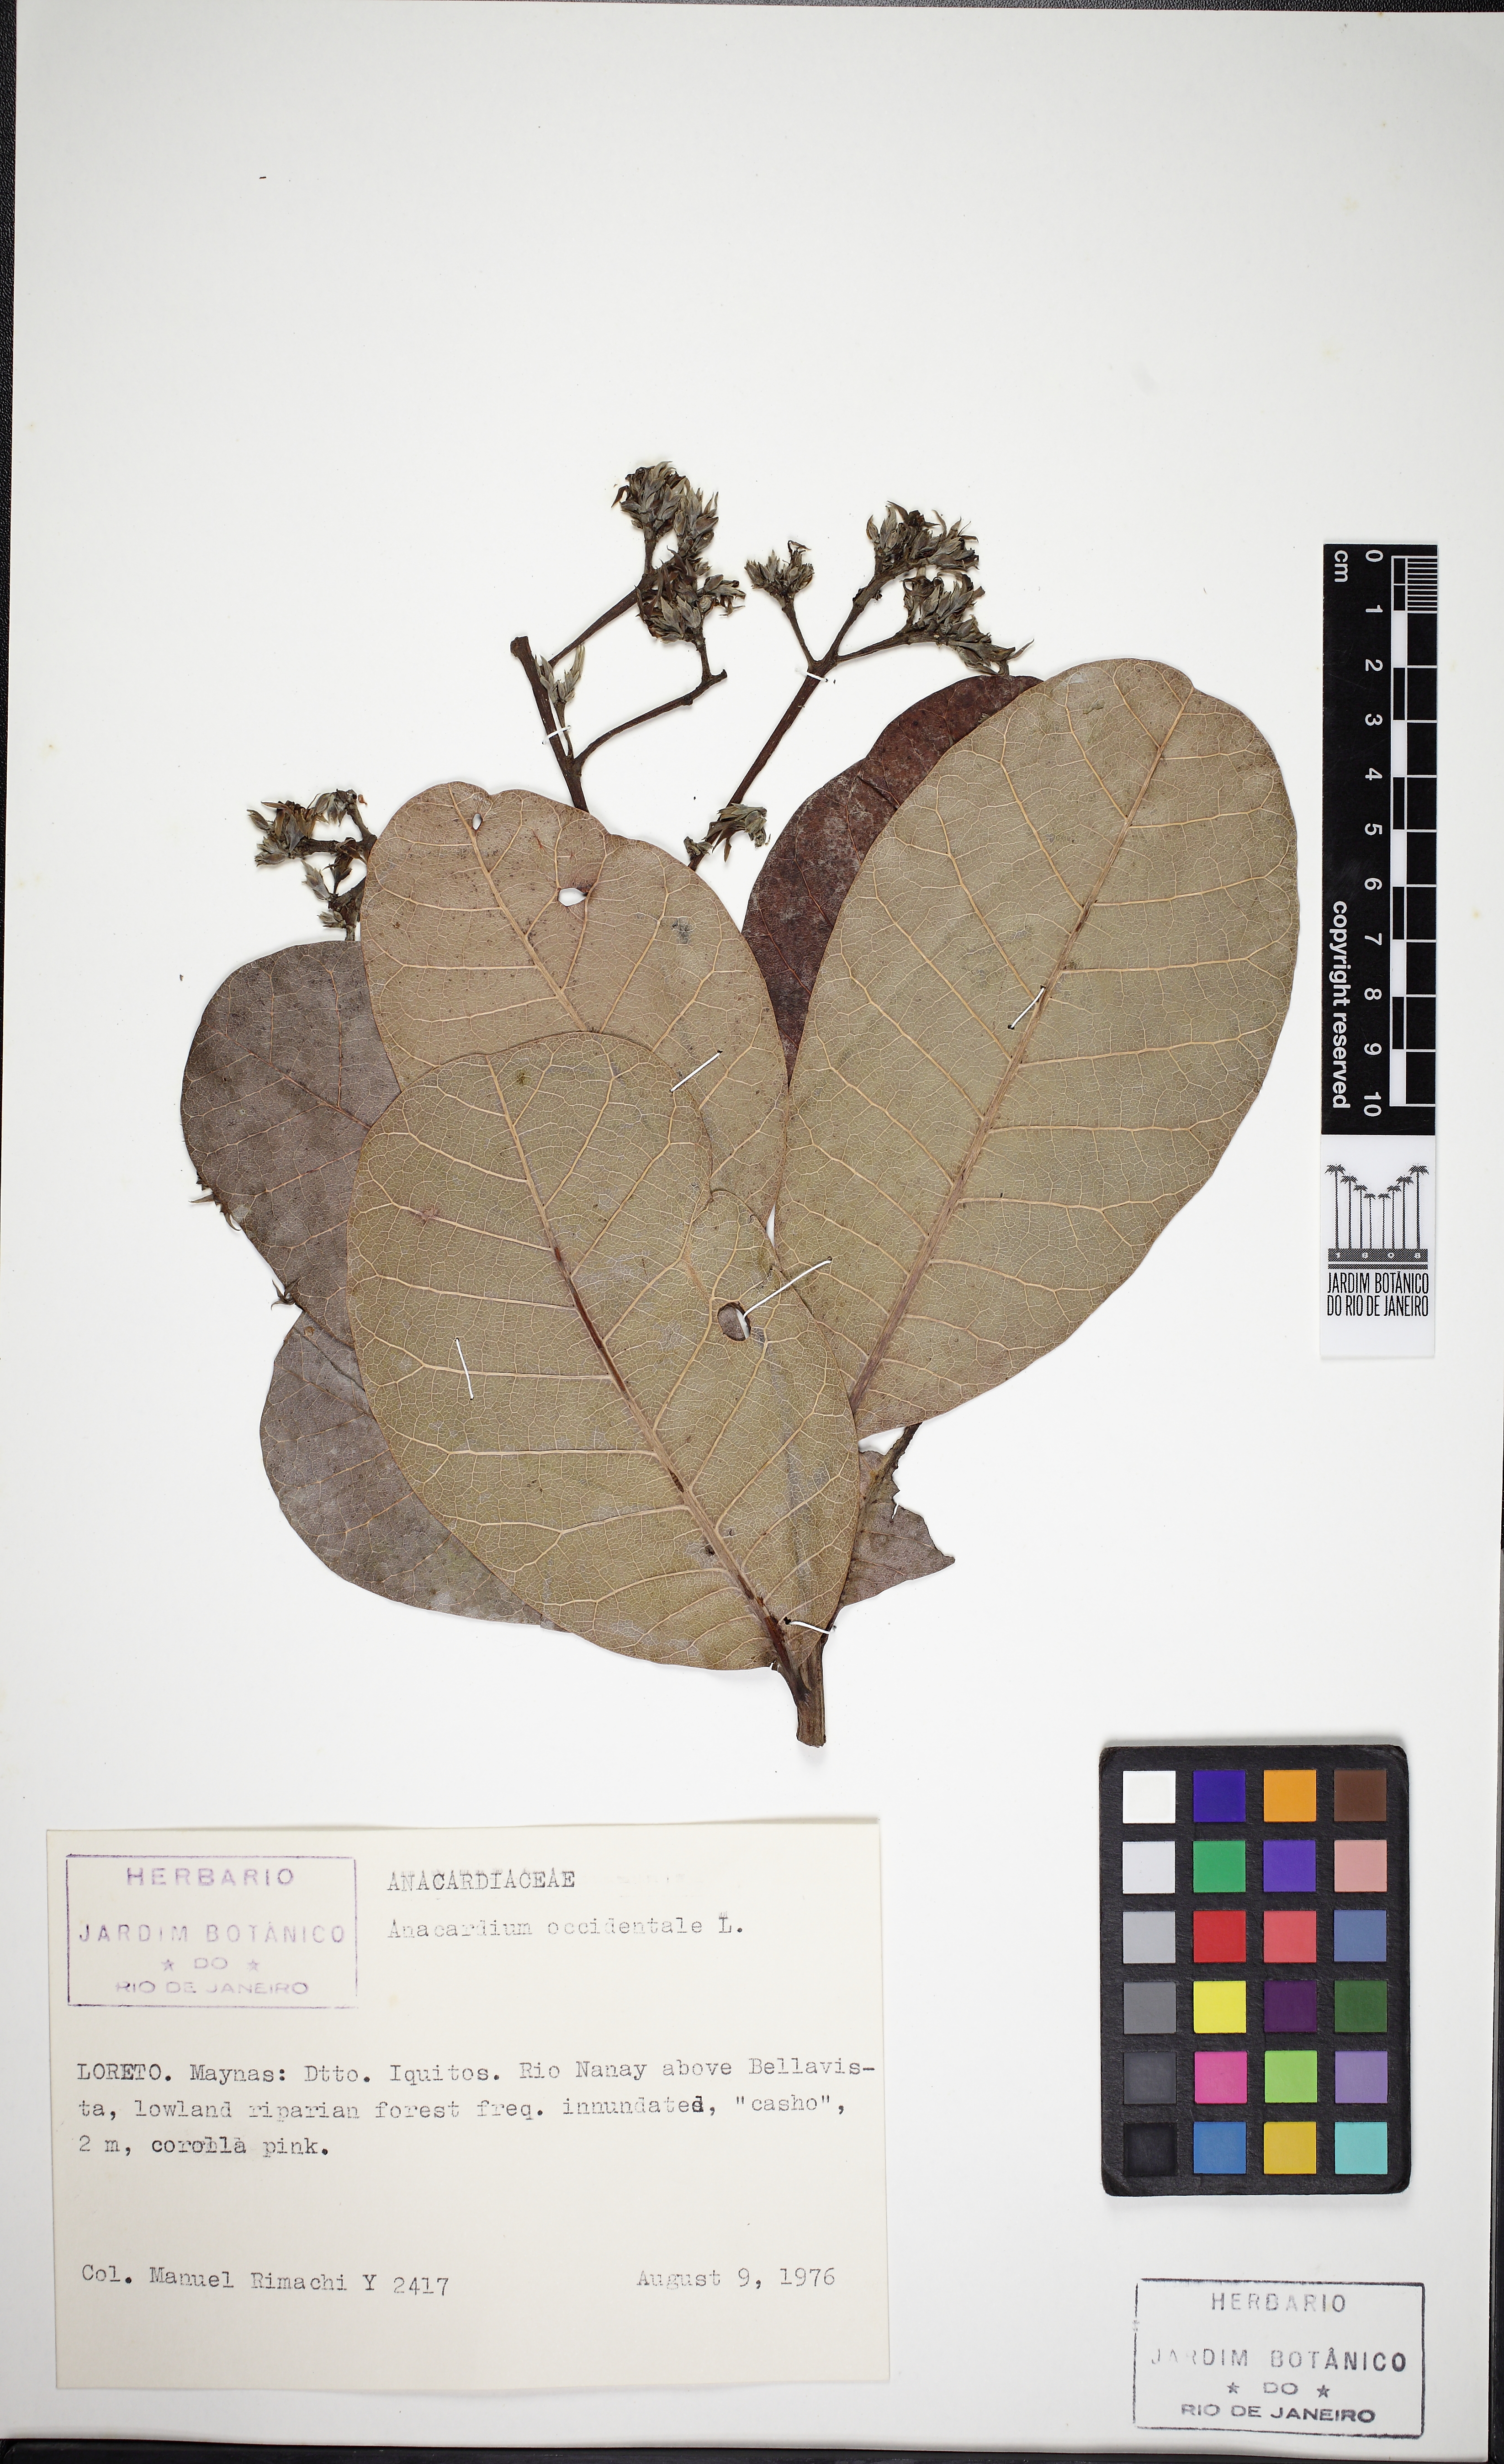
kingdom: Plantae
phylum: Tracheophyta
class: Magnoliopsida
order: Sapindales
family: Anacardiaceae
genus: Anacardium
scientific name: Anacardium occidentale
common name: Cashew
